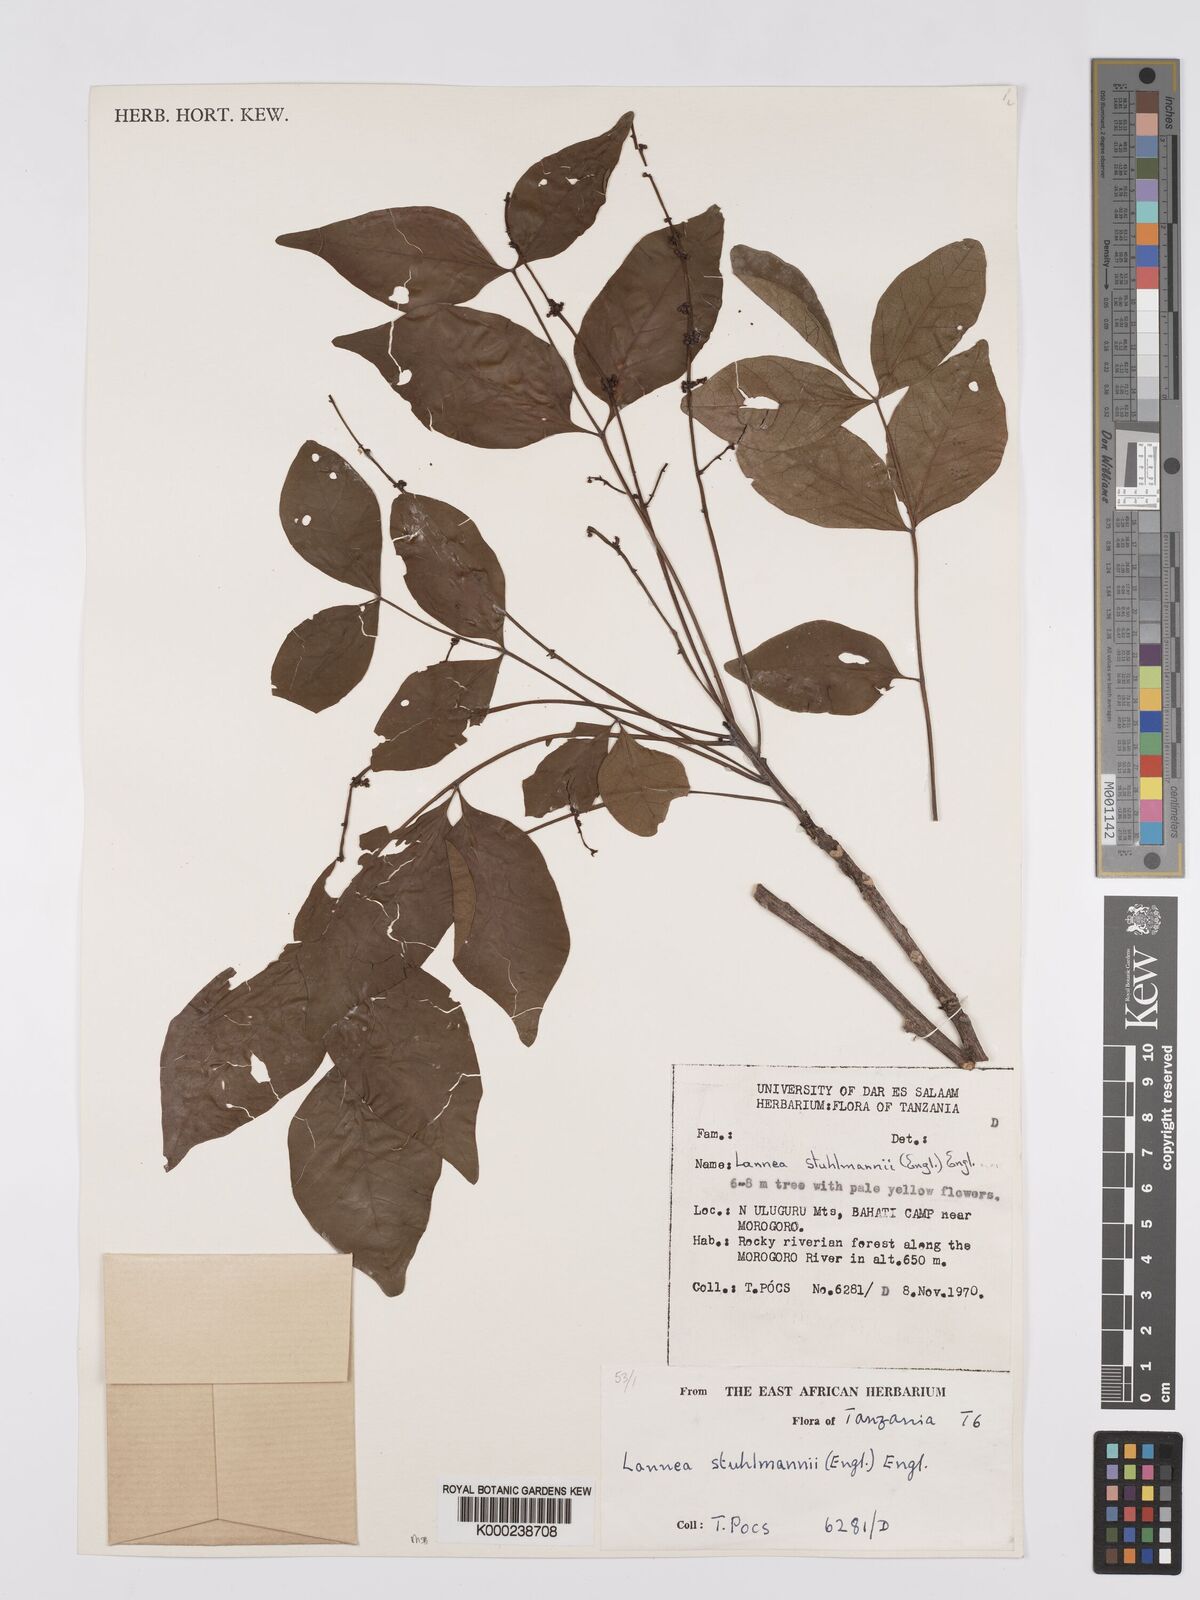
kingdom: Plantae
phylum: Tracheophyta
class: Magnoliopsida
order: Sapindales
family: Anacardiaceae
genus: Lannea
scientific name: Lannea schweinfurthii
